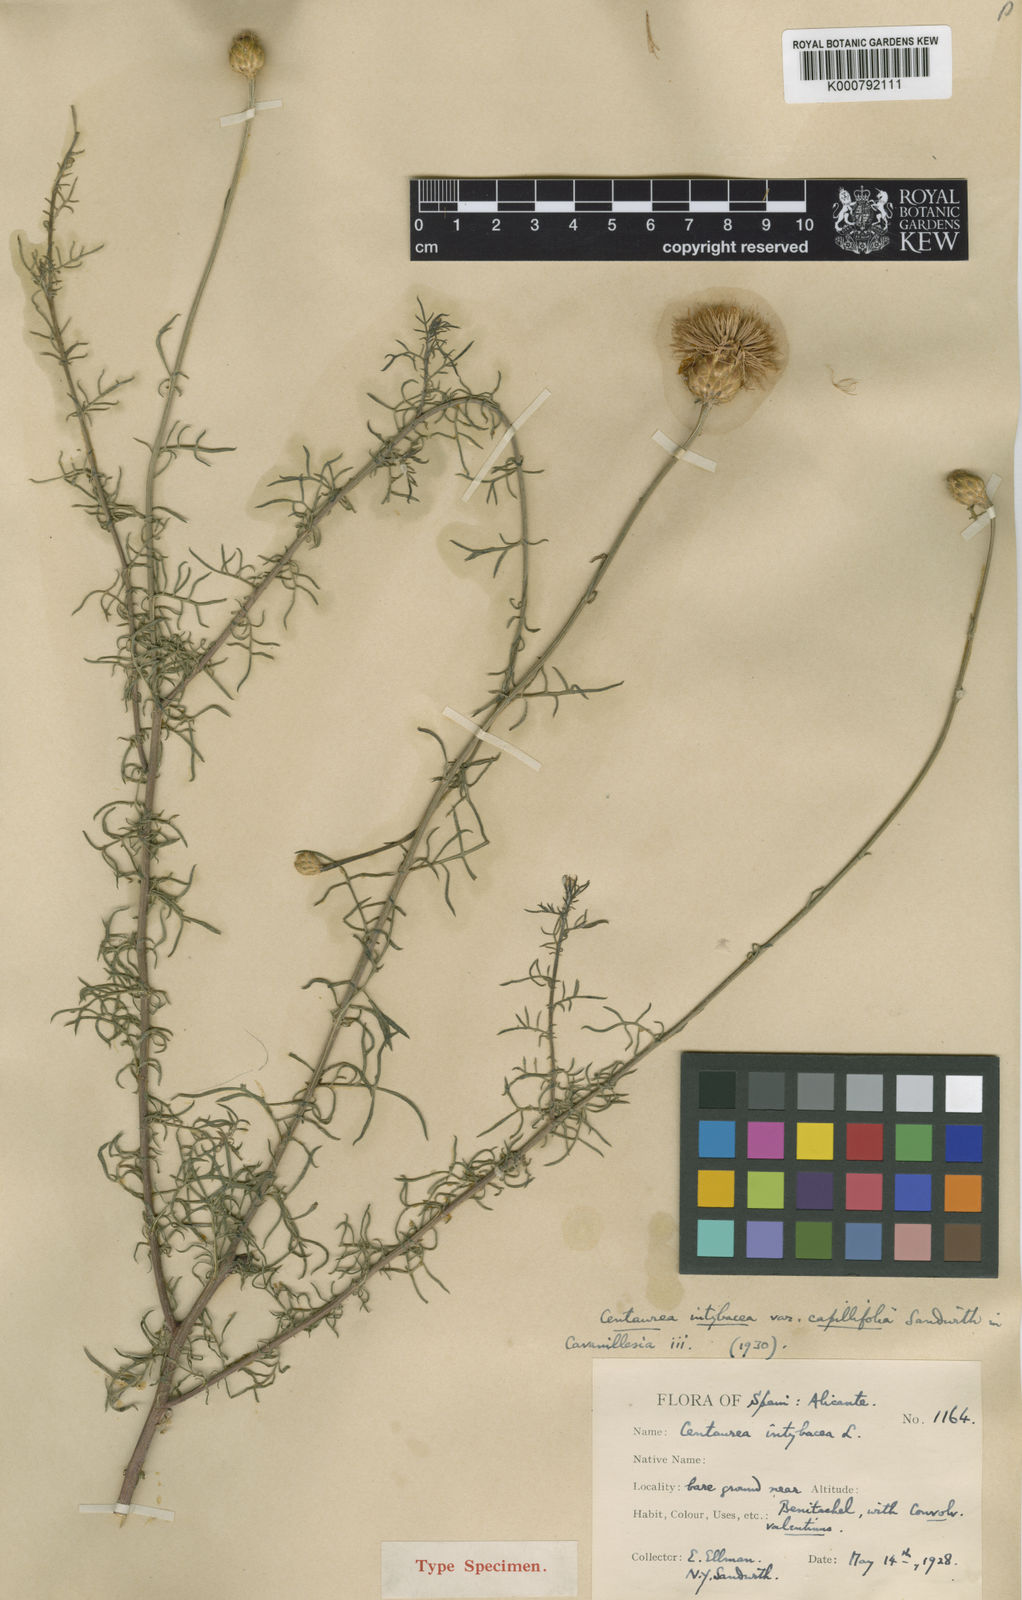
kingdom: Plantae
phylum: Tracheophyta
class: Magnoliopsida
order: Asterales
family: Asteraceae
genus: Cheirolophus
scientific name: Cheirolophus
